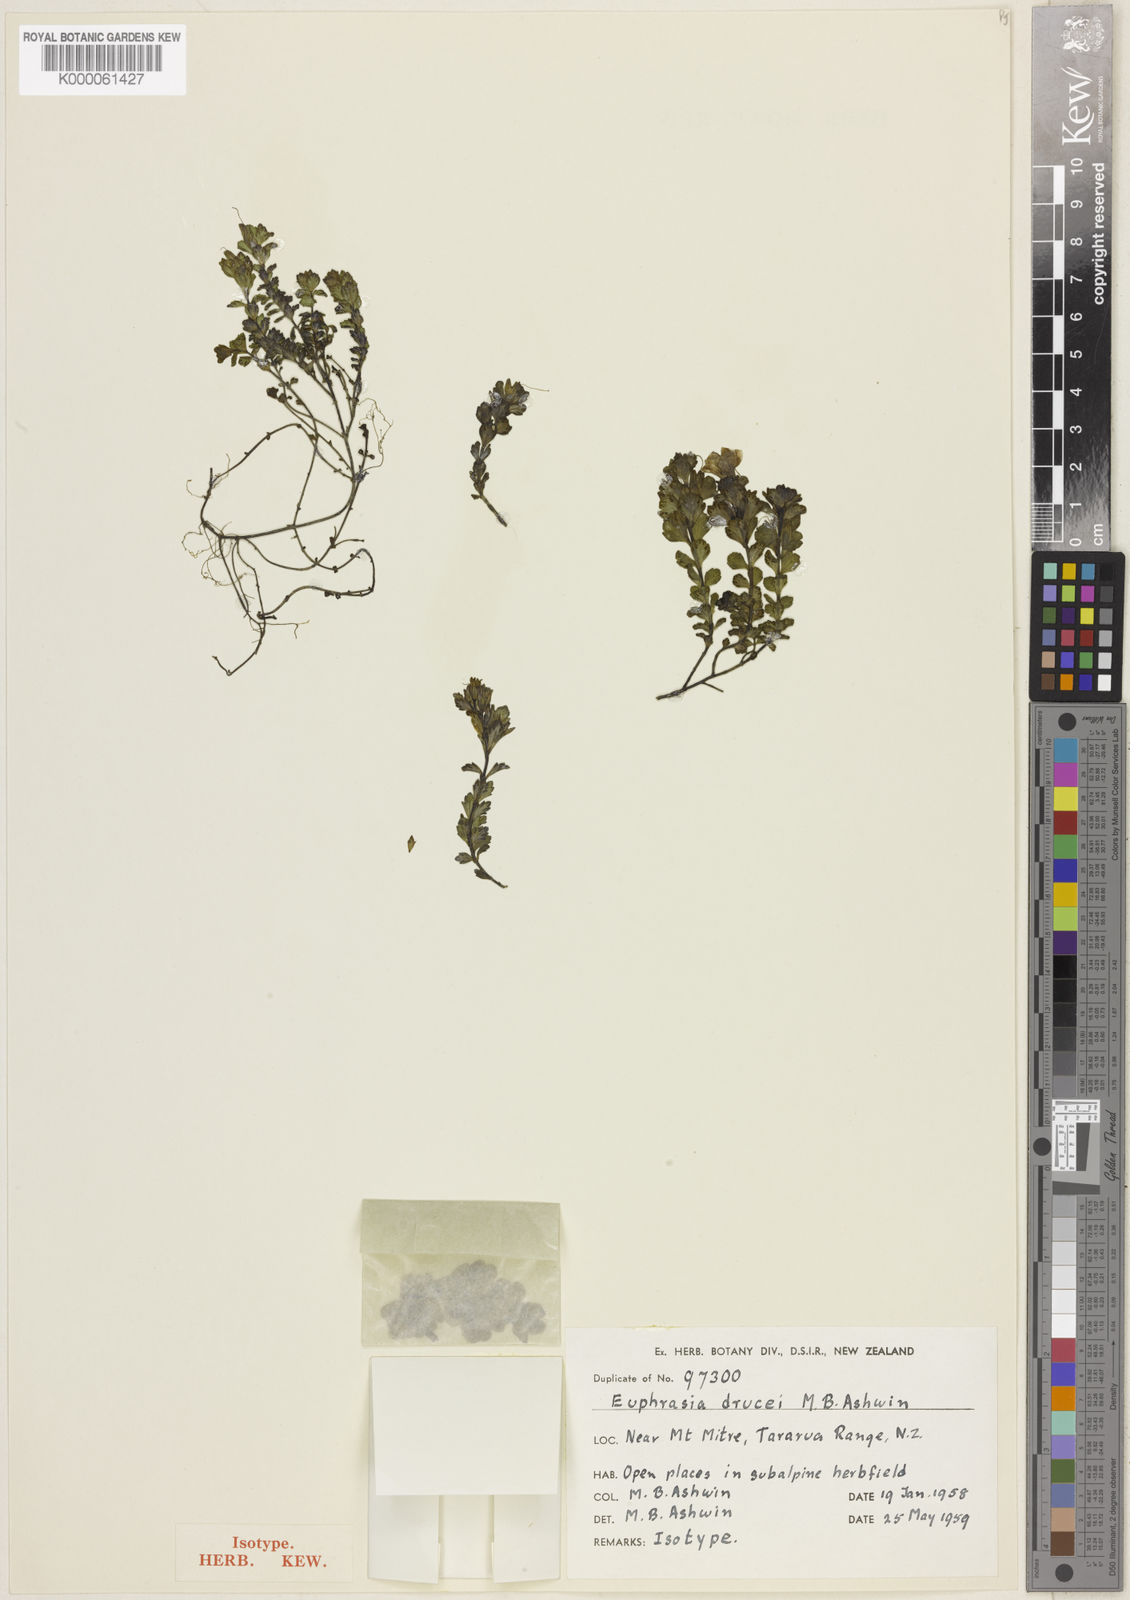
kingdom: Plantae
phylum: Tracheophyta
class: Magnoliopsida
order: Lamiales
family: Orobanchaceae
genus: Euphrasia
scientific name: Euphrasia drucei
